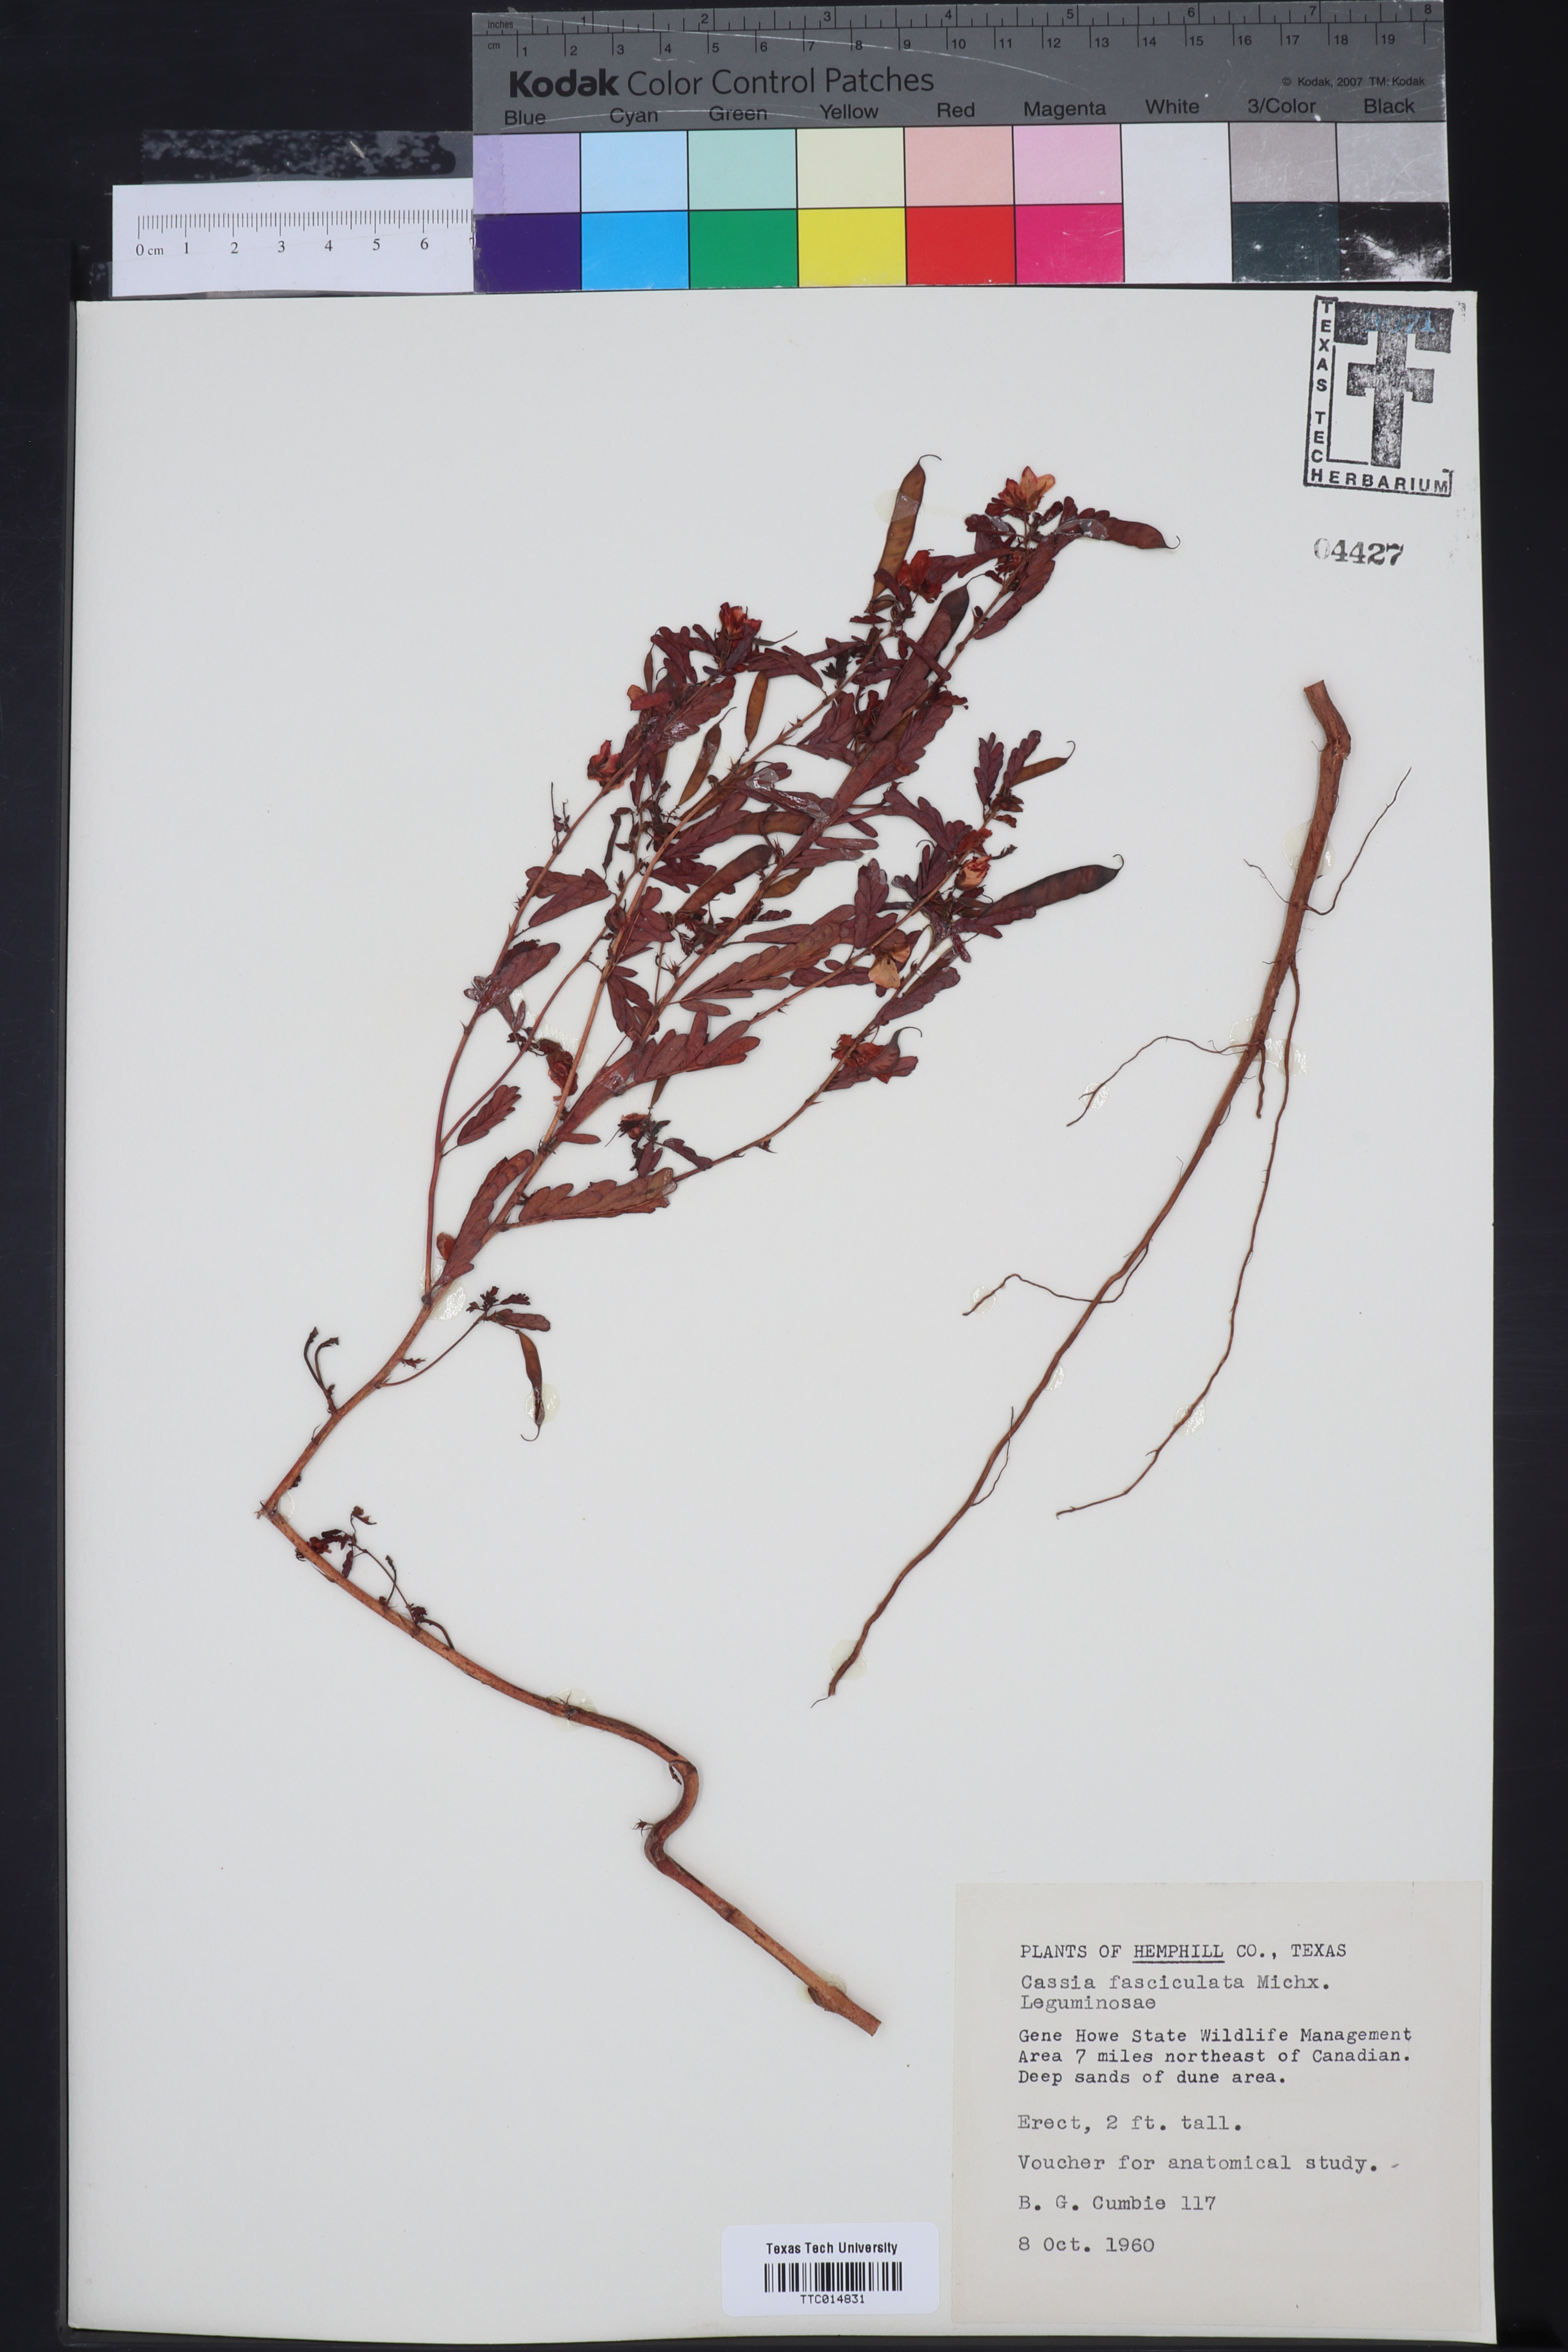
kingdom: Plantae
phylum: Tracheophyta
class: Magnoliopsida
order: Fabales
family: Fabaceae
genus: Chamaecrista
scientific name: Chamaecrista fasciculata
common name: Golden cassia
